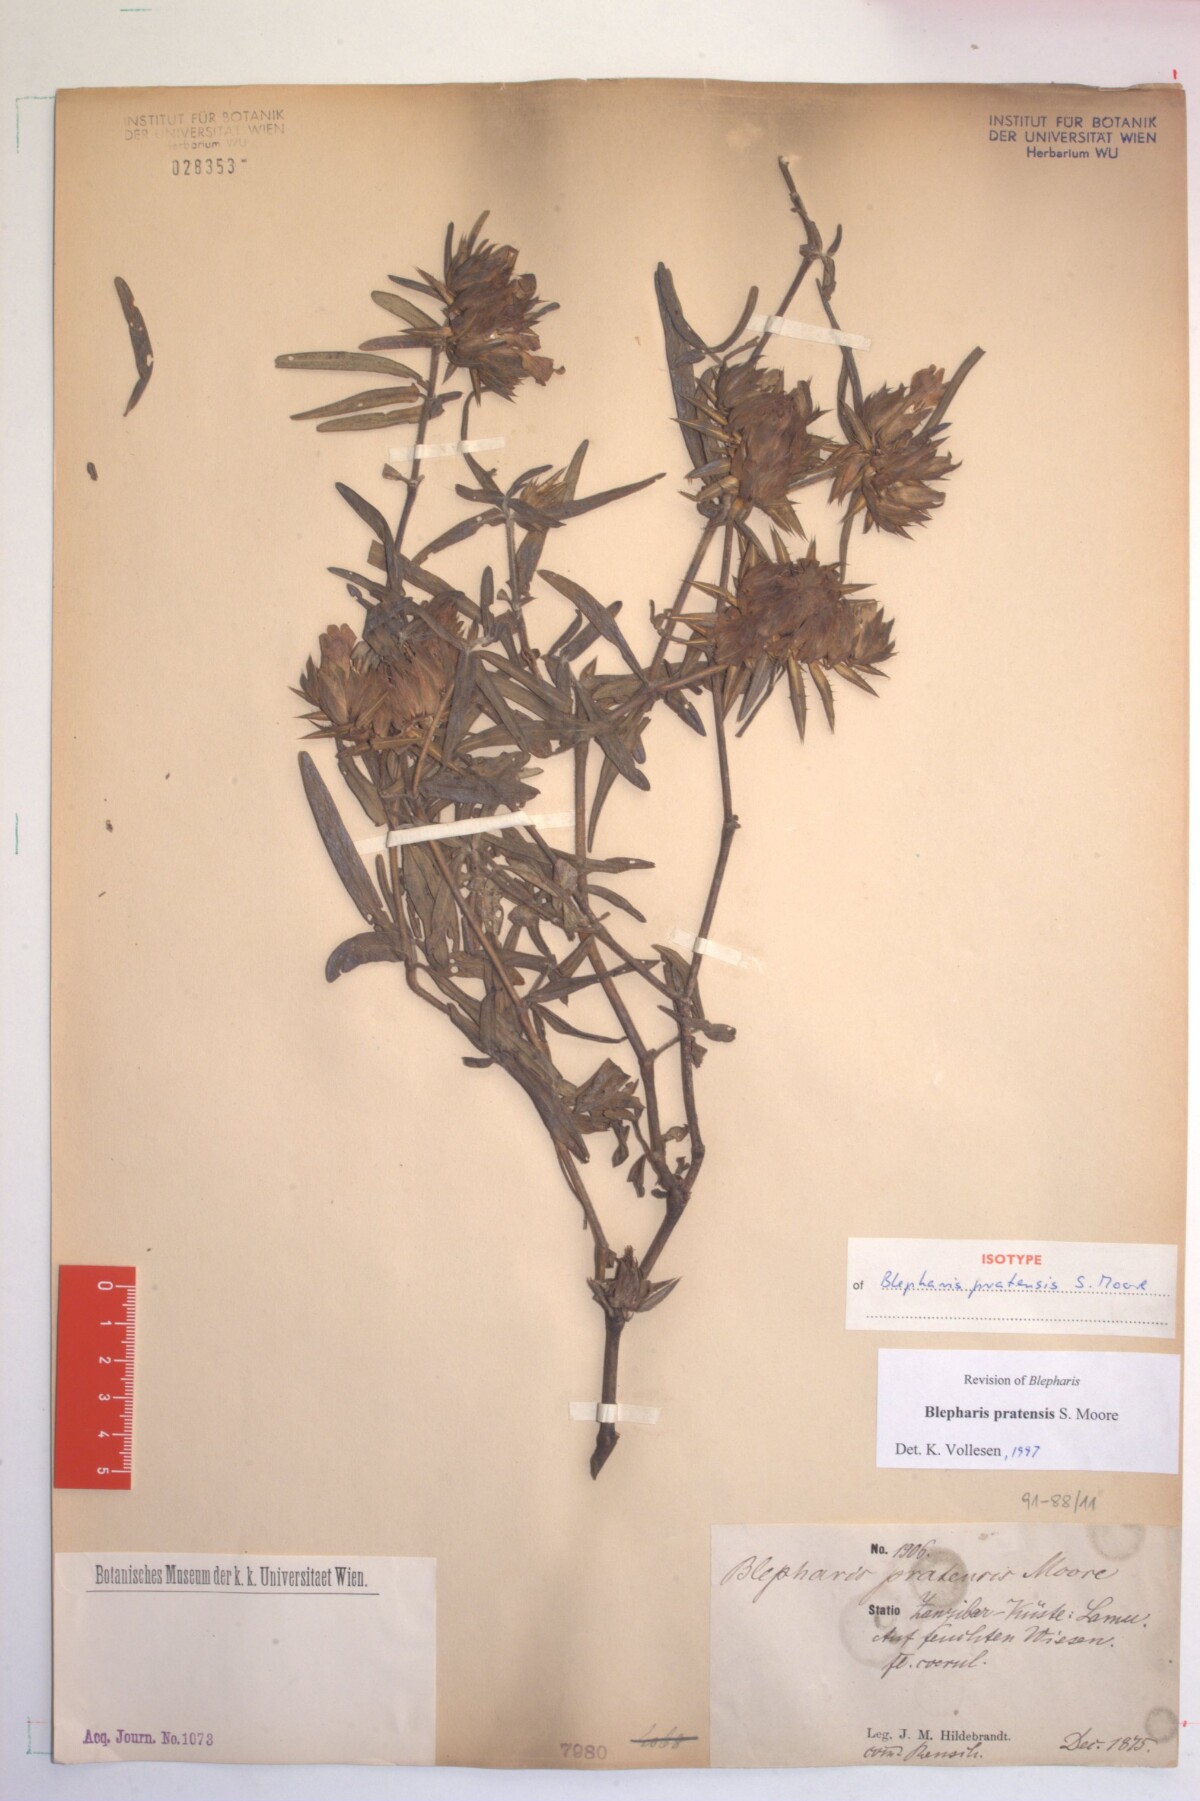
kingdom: Plantae
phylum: Tracheophyta
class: Magnoliopsida
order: Lamiales
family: Acanthaceae
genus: Blepharis
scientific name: Blepharis pratensis
